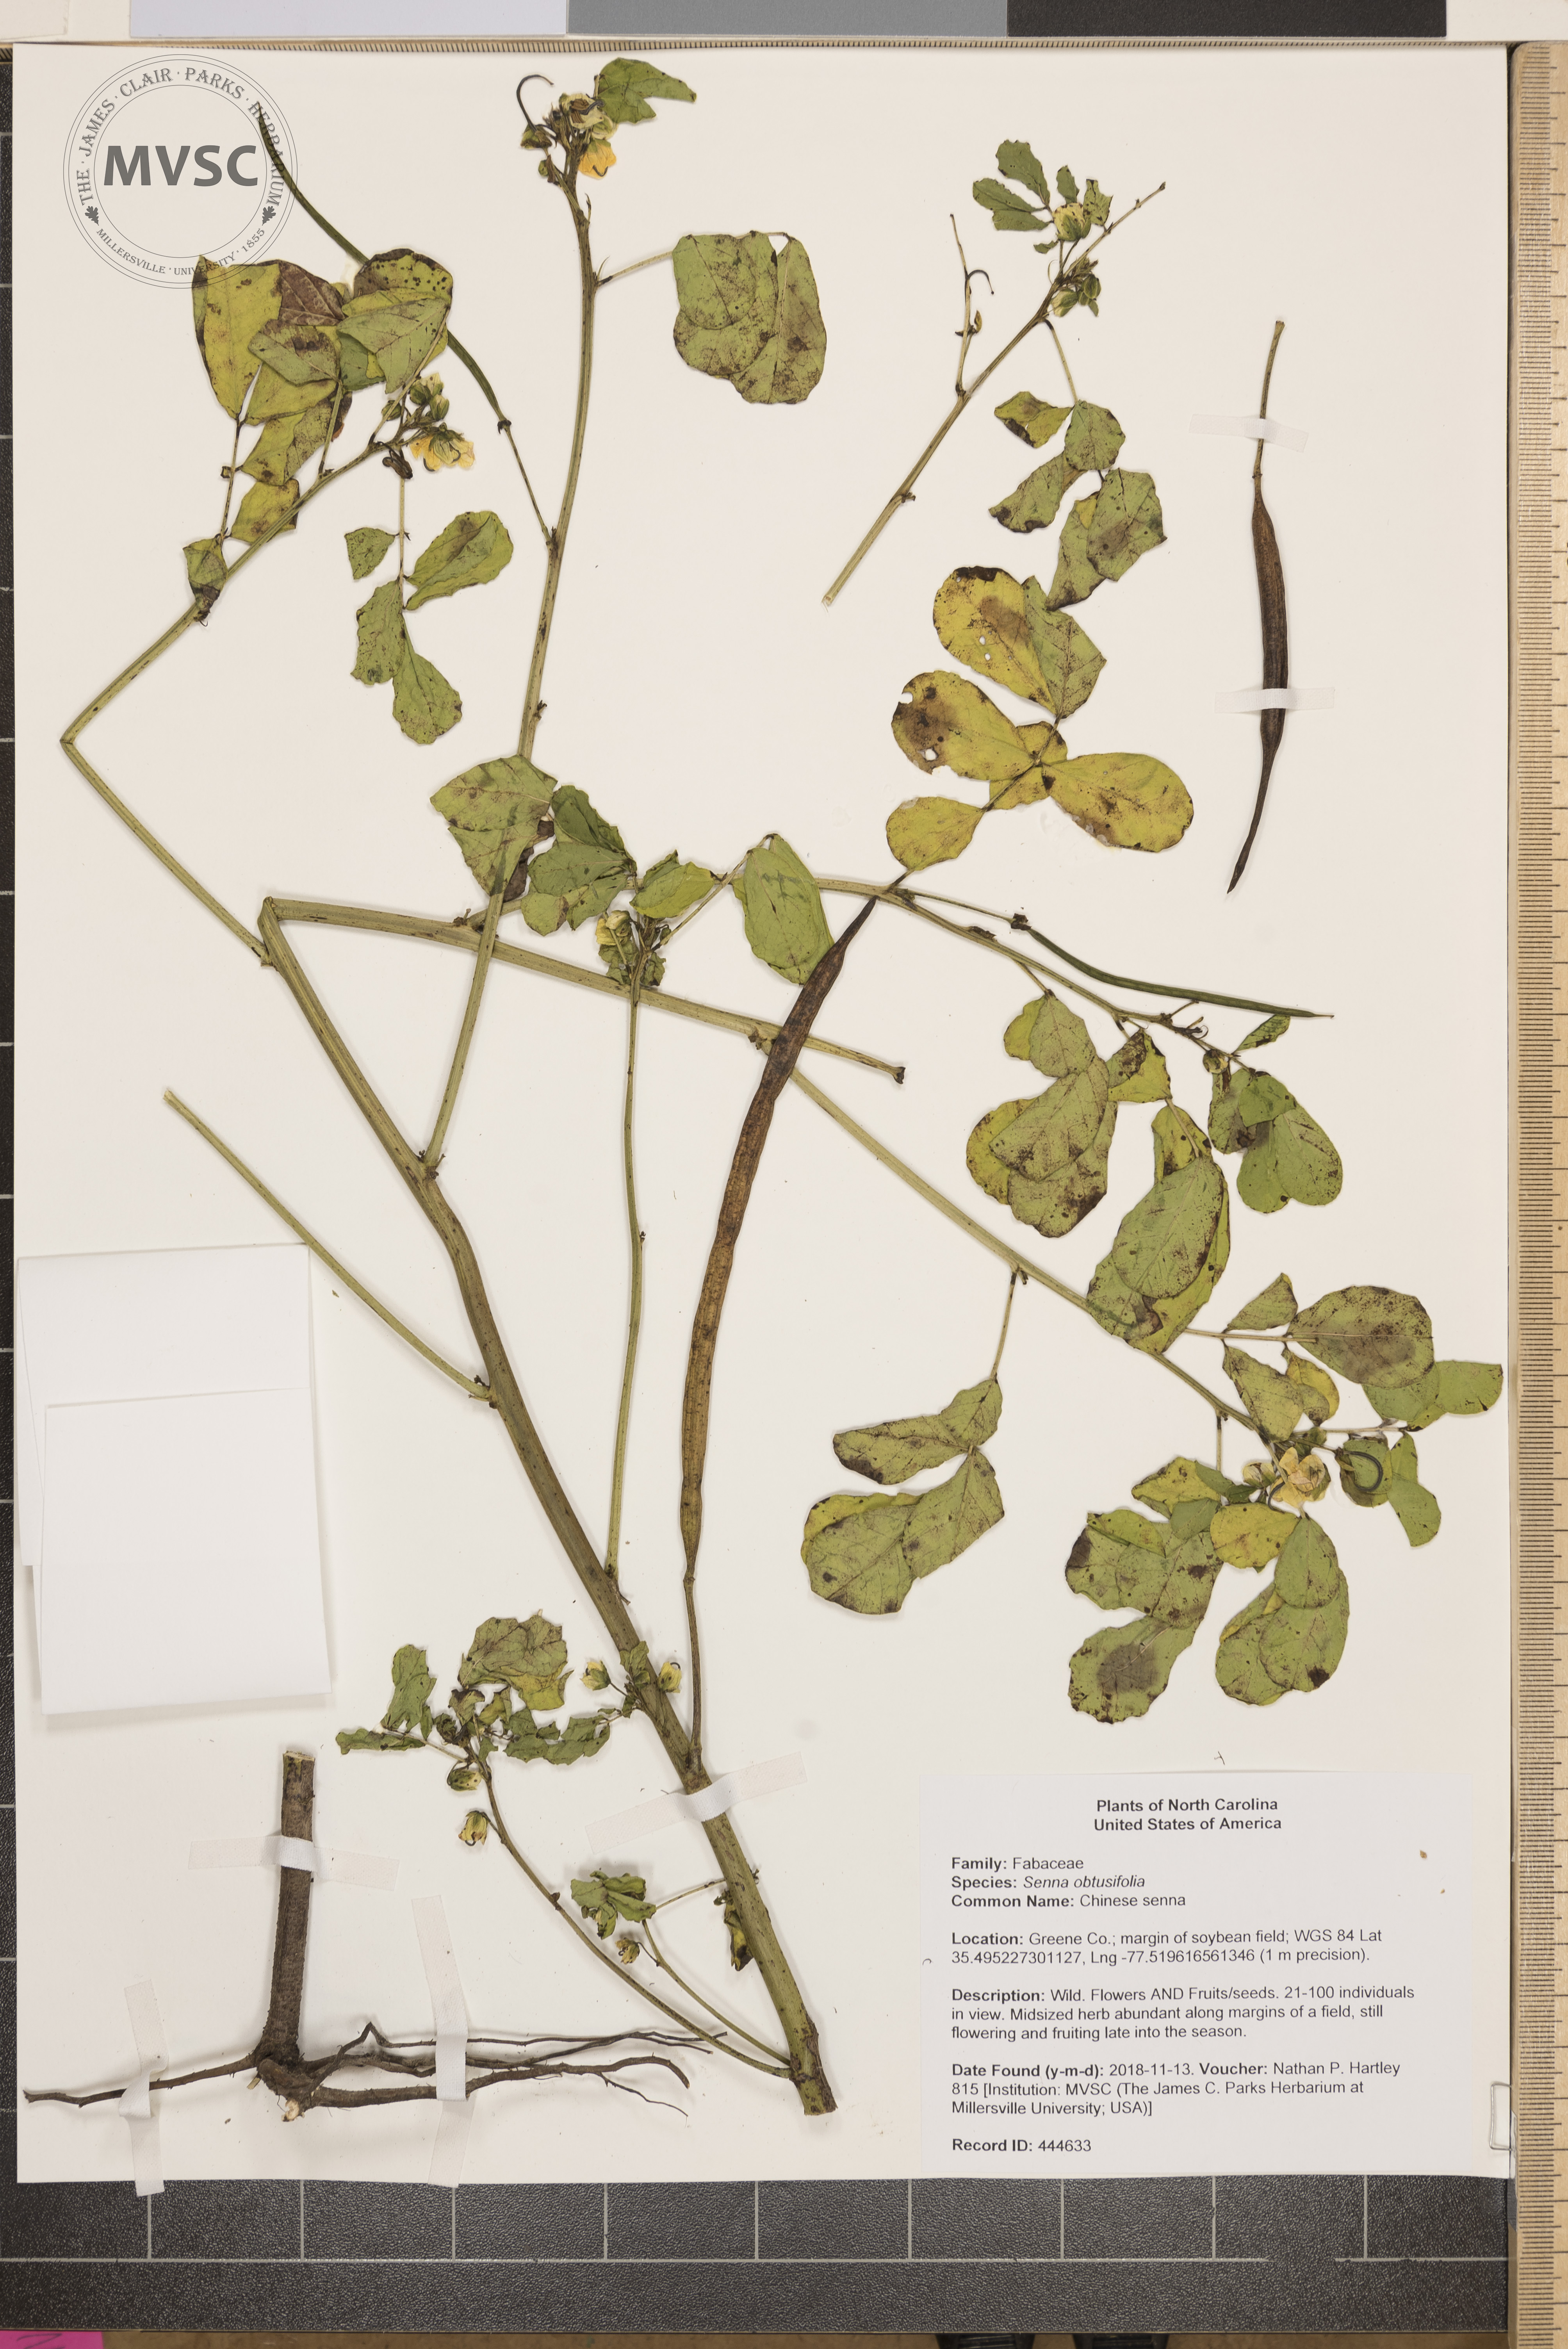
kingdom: Plantae
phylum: Tracheophyta
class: Magnoliopsida
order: Fabales
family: Fabaceae
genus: Senna
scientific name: Senna obtusifolia
